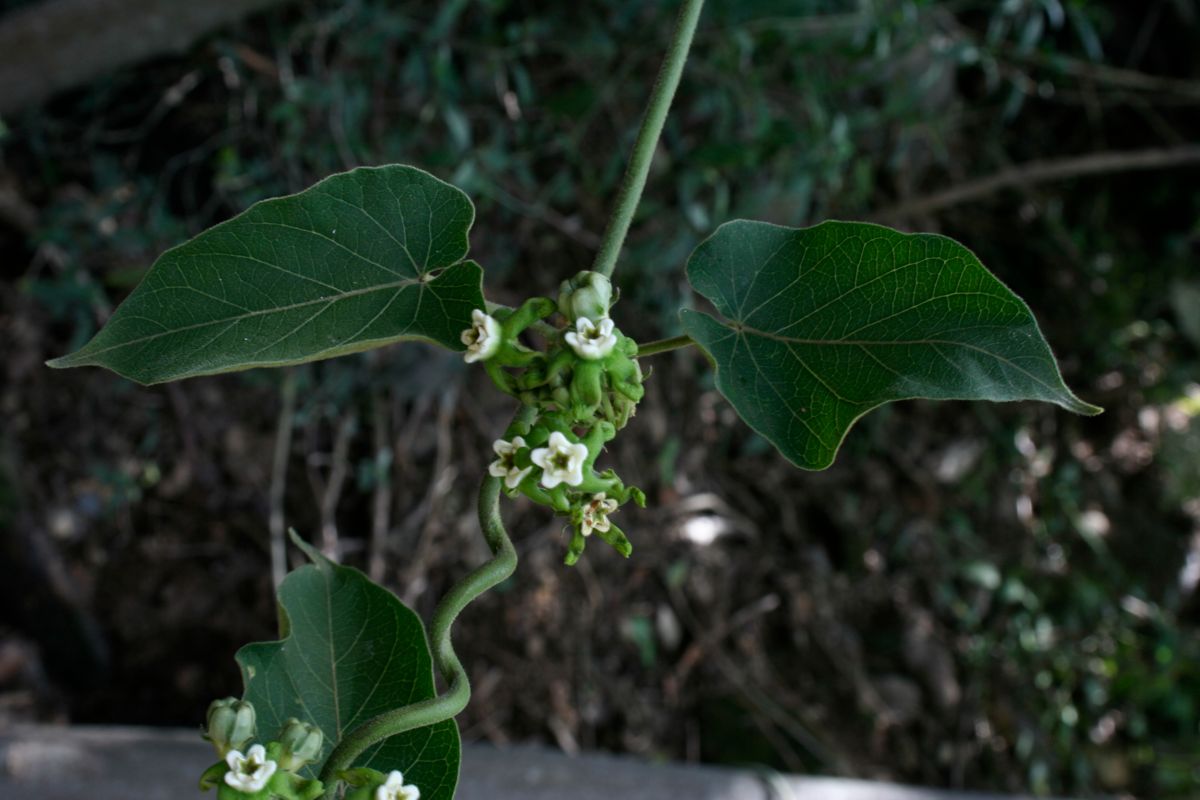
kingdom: Plantae
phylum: Tracheophyta
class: Magnoliopsida
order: Gentianales
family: Apocynaceae
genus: Gonolobus
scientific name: Gonolobus lasiostemma
